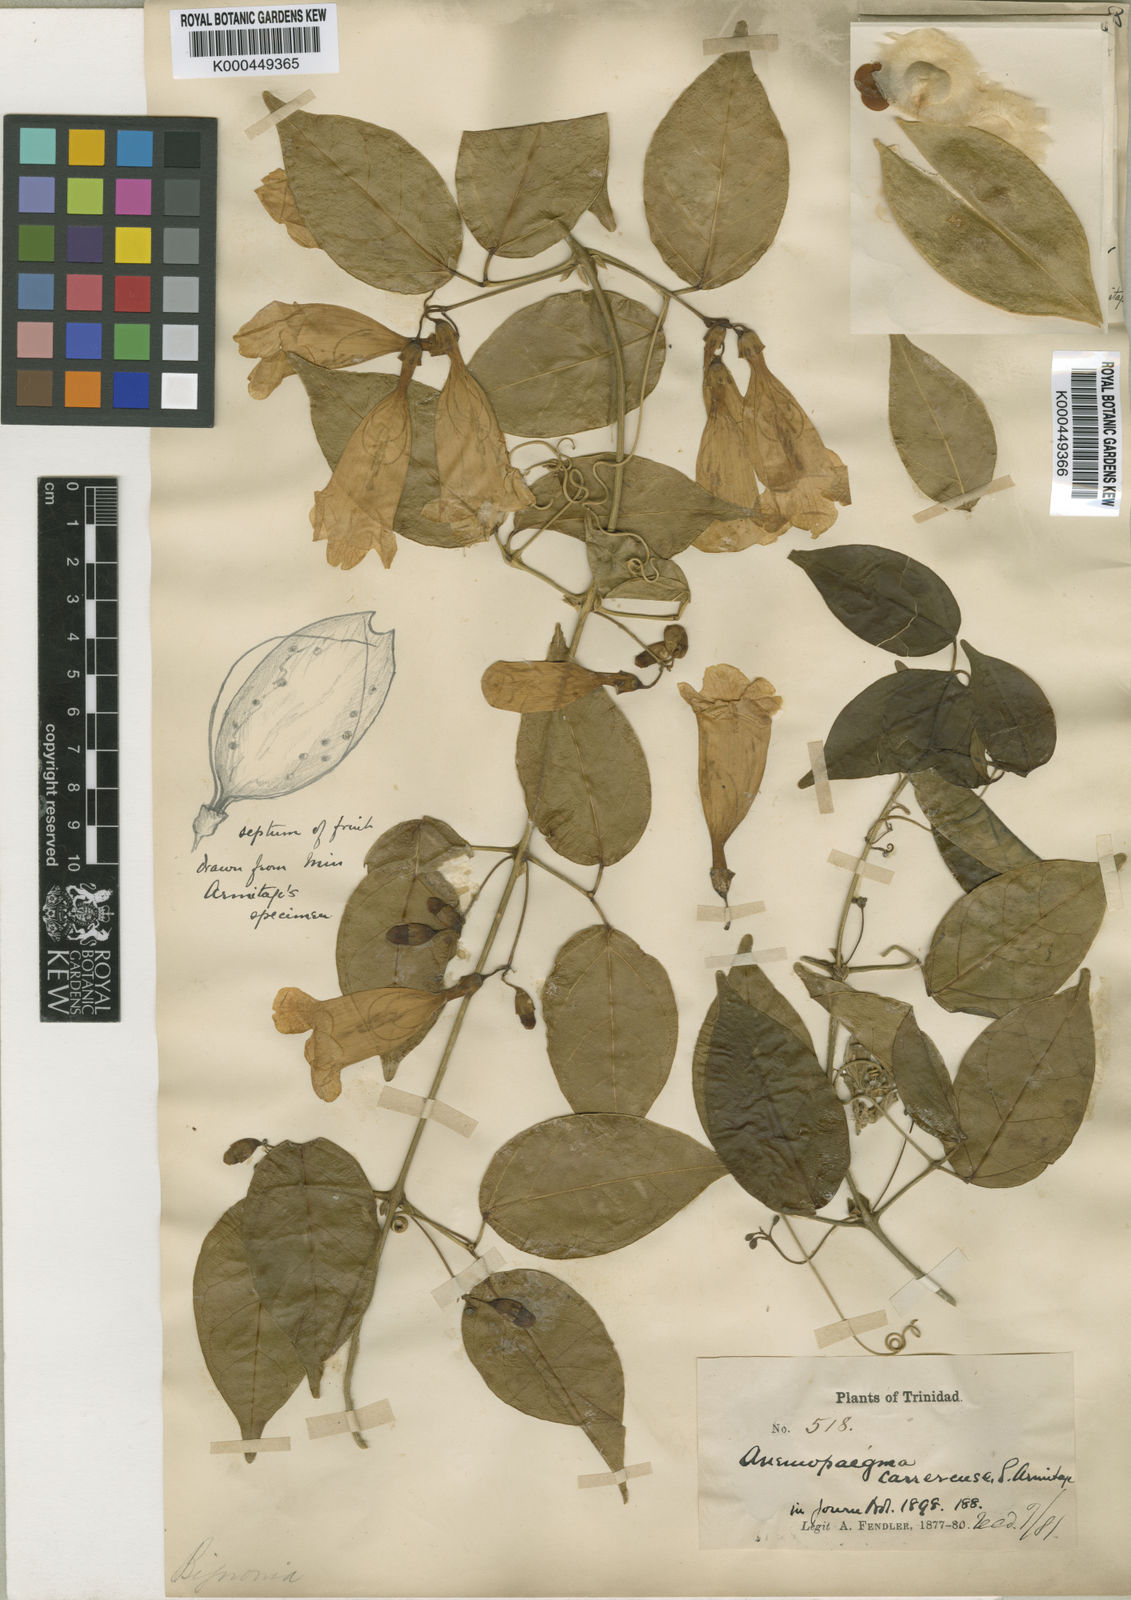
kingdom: Plantae
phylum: Tracheophyta
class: Magnoliopsida
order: Lamiales
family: Bignoniaceae
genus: Anemopaegma
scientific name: Anemopaegma karstenii
